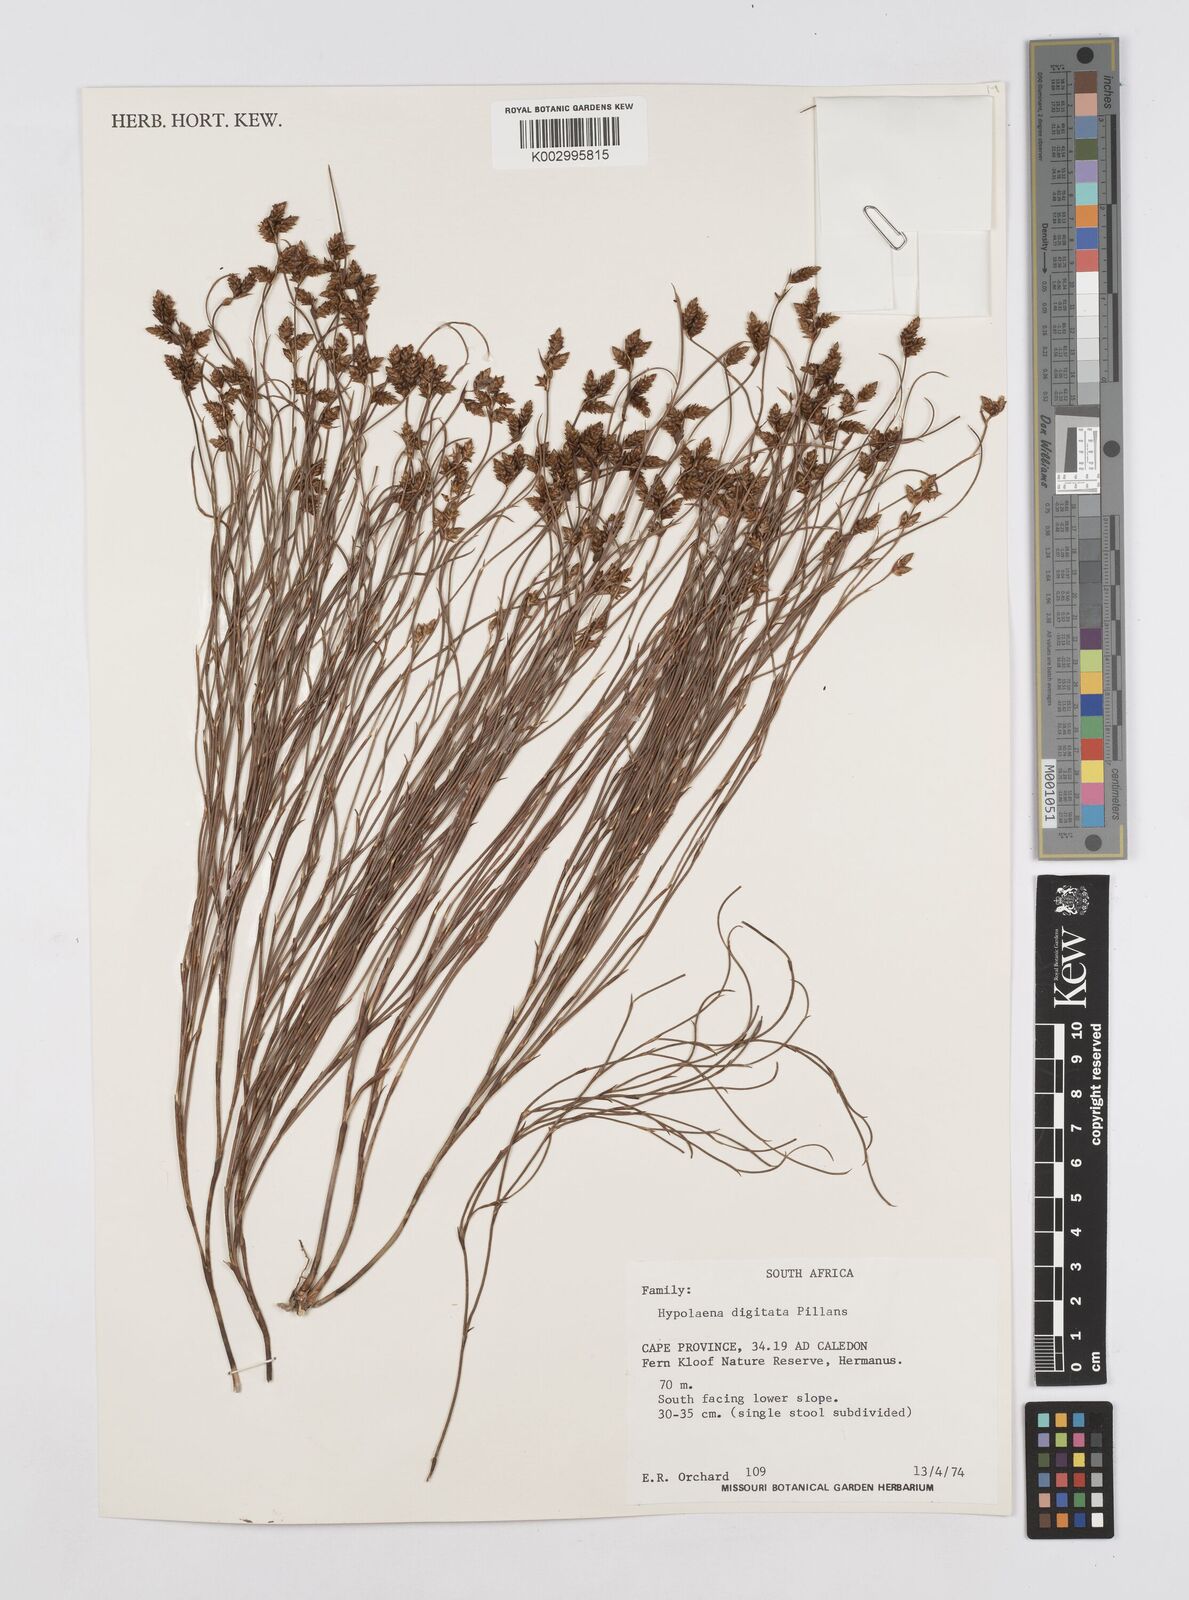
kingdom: Plantae
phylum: Tracheophyta
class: Liliopsida
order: Poales
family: Restionaceae
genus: Mastersiella
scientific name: Mastersiella digitata
